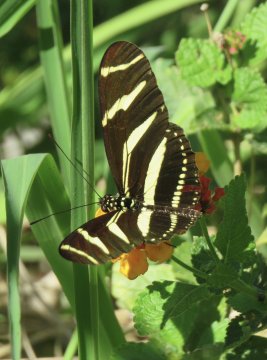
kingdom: Animalia
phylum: Arthropoda
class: Insecta
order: Lepidoptera
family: Nymphalidae
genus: Heliconius
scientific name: Heliconius charithonia
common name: Zebra Longwing
